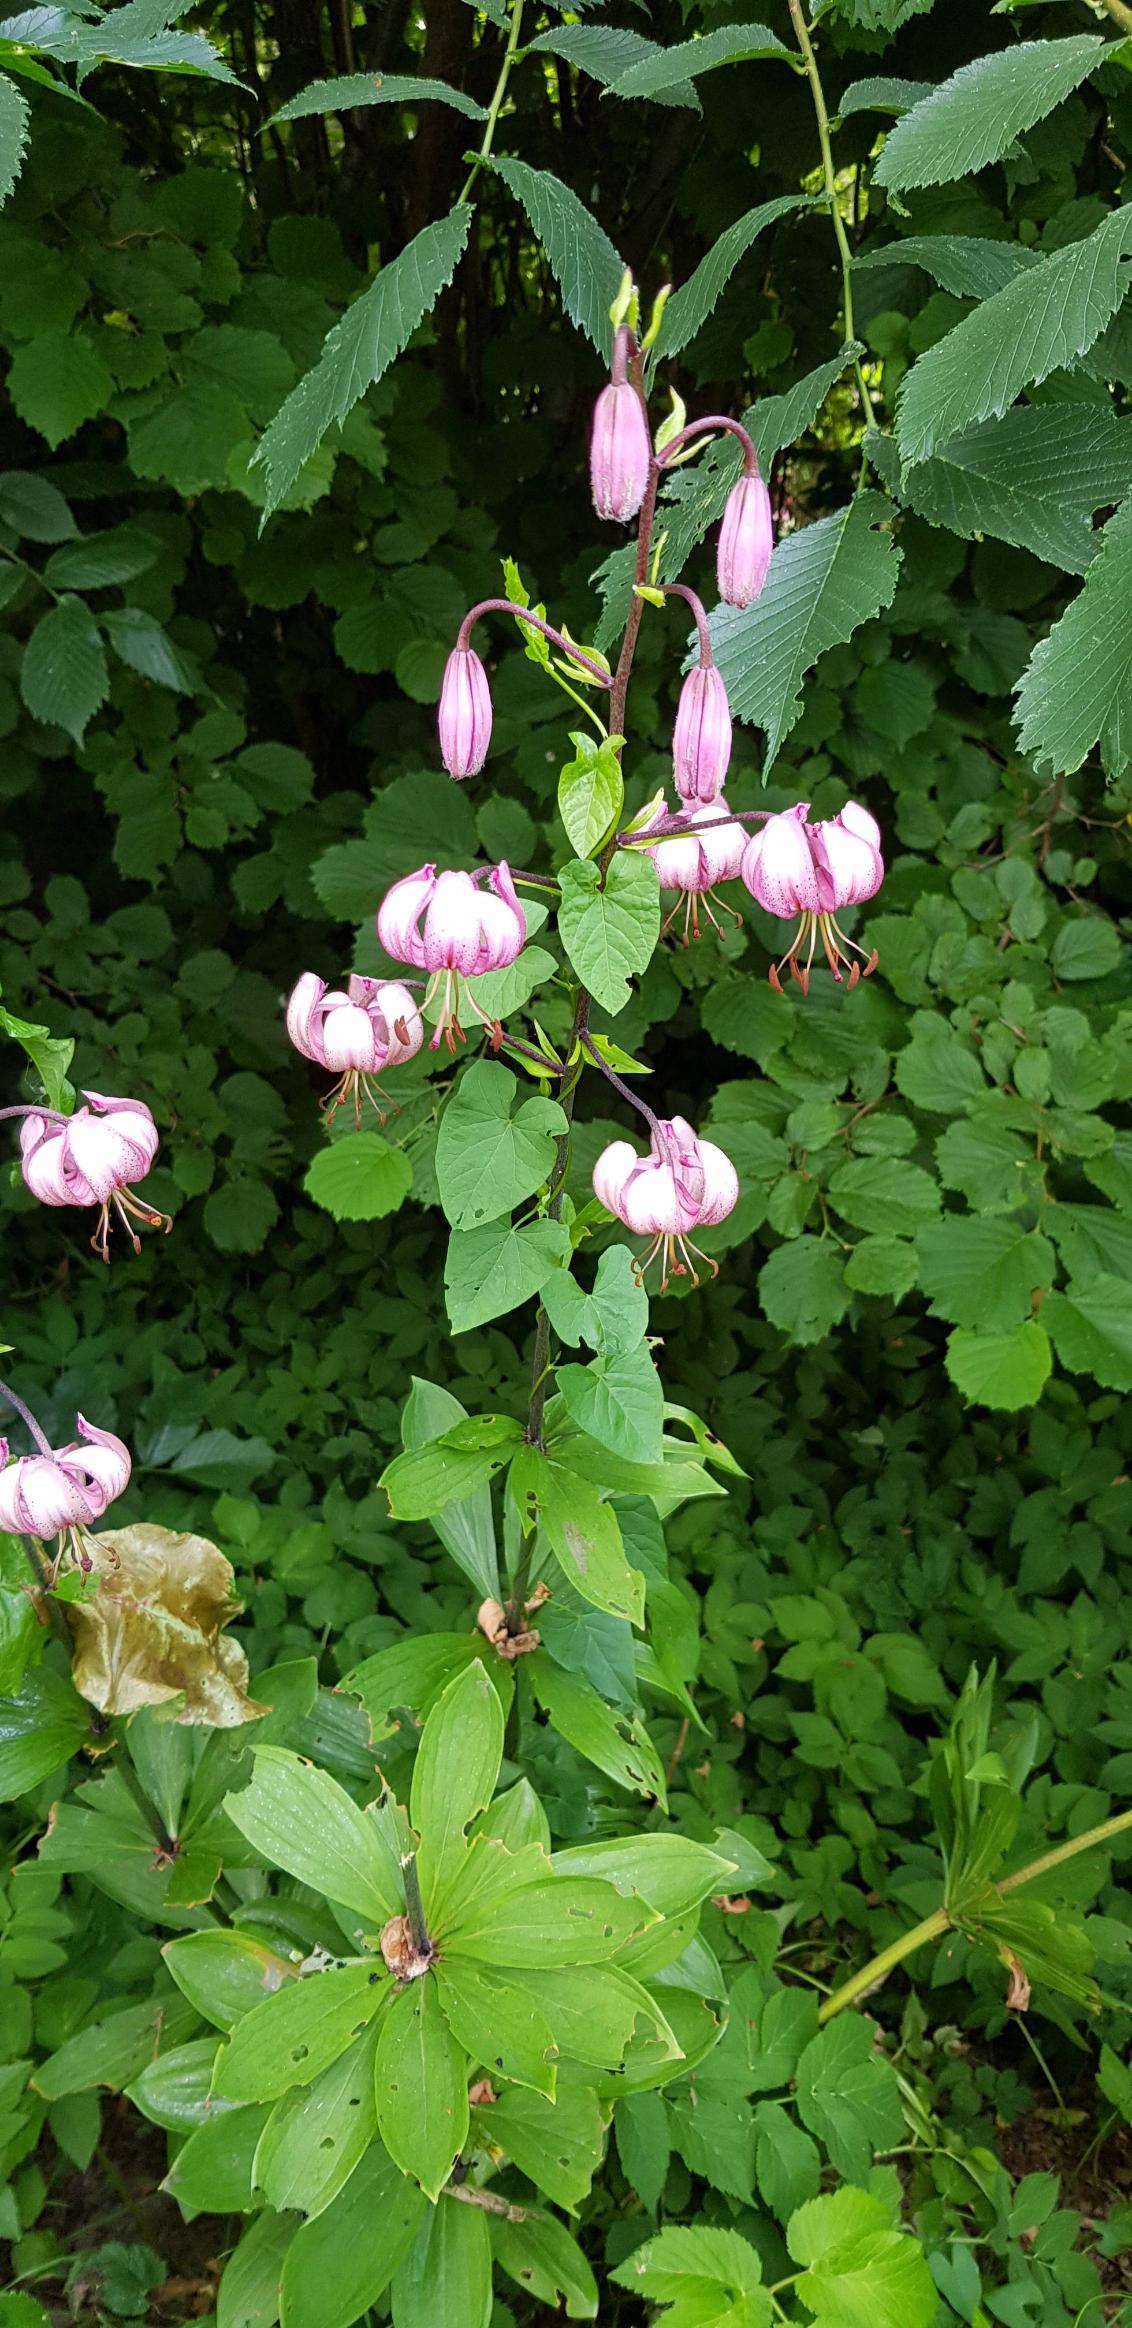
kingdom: Plantae
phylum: Tracheophyta
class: Liliopsida
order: Liliales
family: Liliaceae
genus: Lilium
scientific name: Lilium martagon
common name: Krans-lilje
